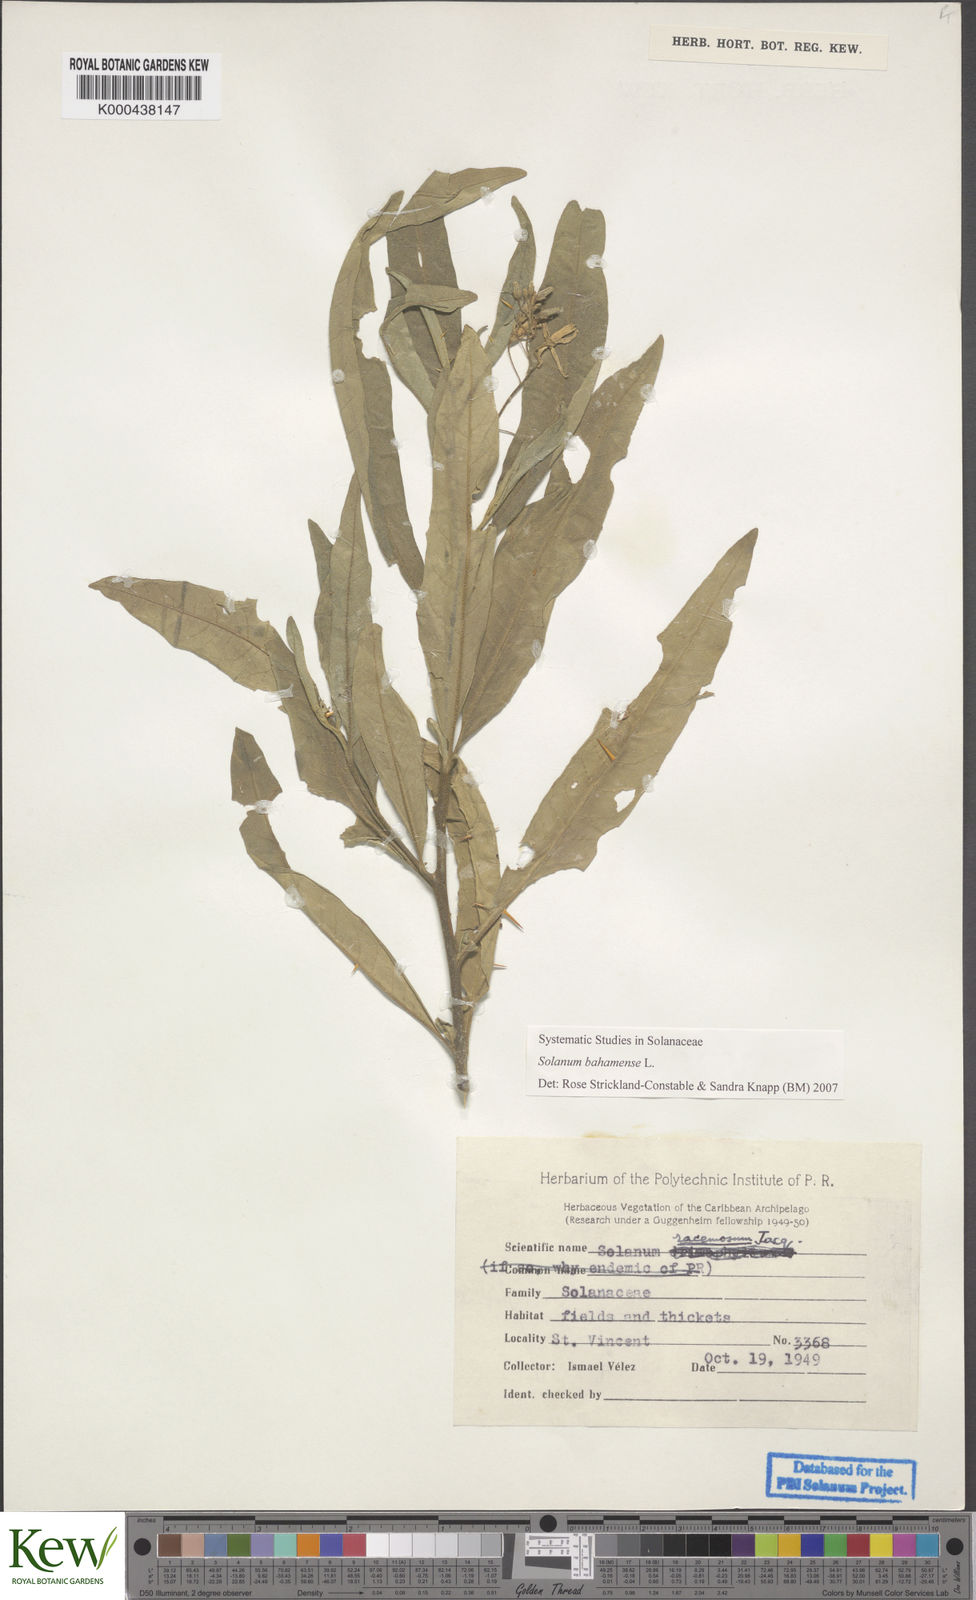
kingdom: Plantae
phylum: Tracheophyta
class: Magnoliopsida
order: Solanales
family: Solanaceae
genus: Solanum
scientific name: Solanum bahamense
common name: Canker-berry
